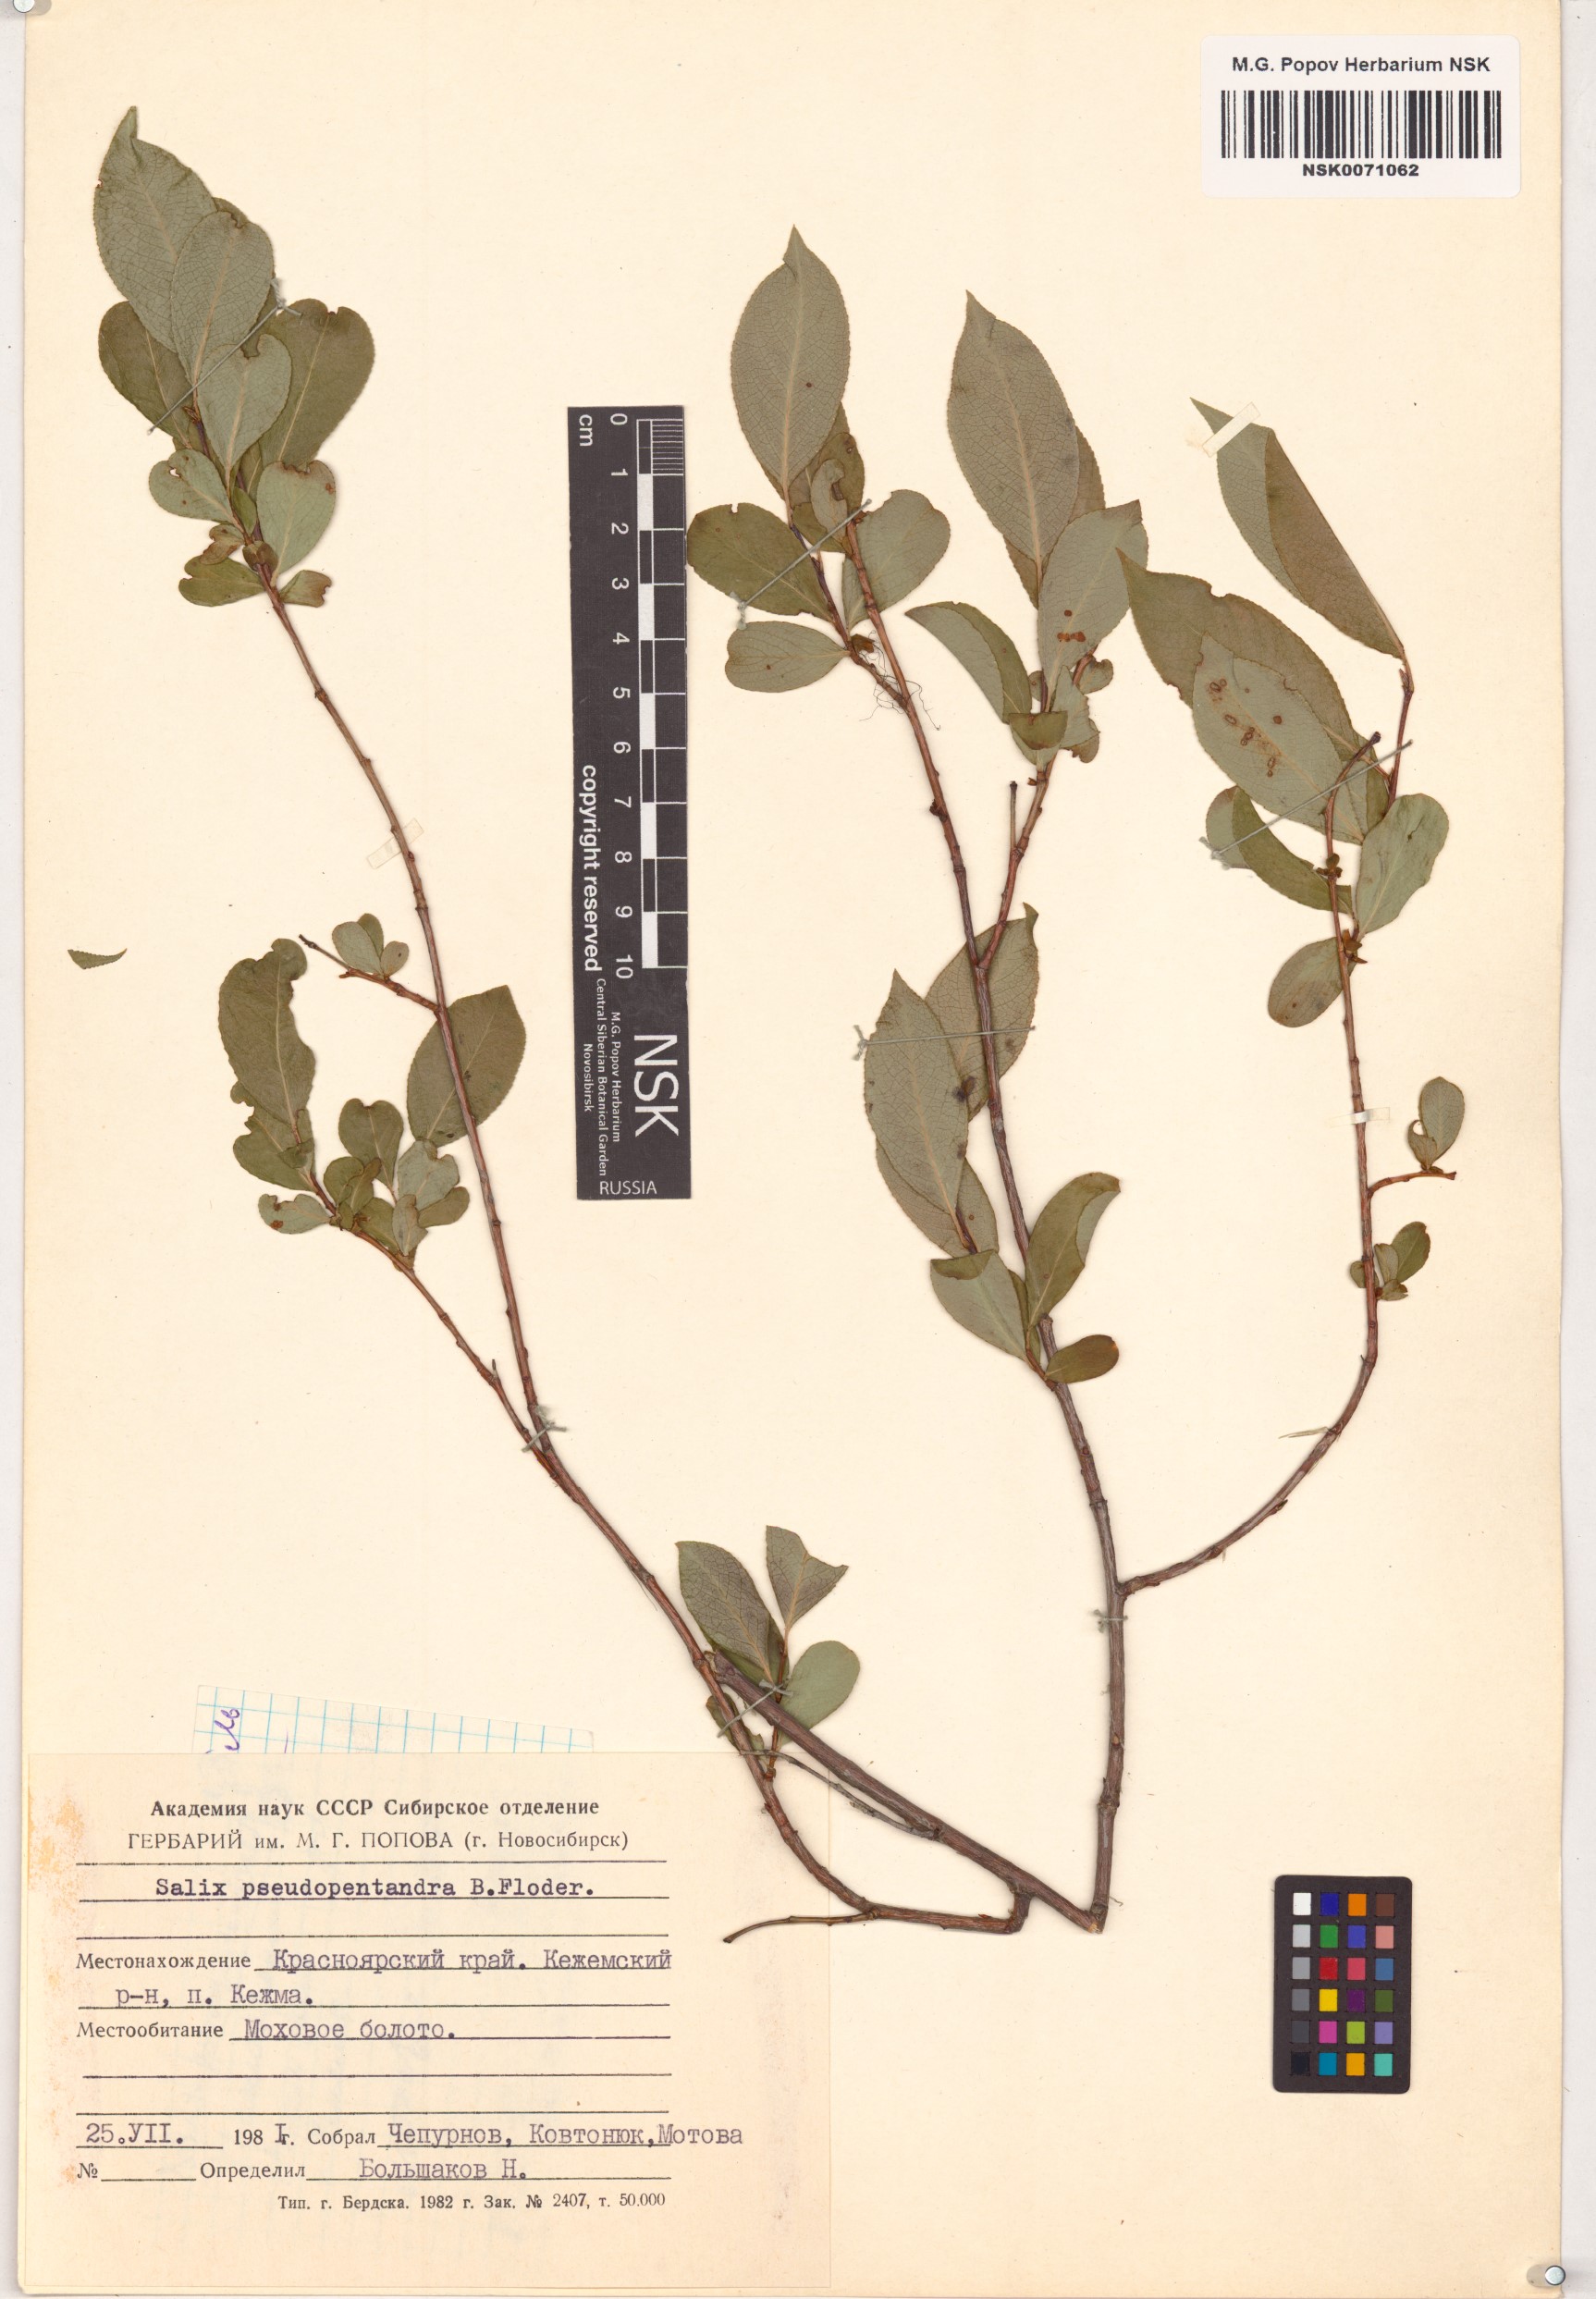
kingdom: Plantae
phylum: Tracheophyta
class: Magnoliopsida
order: Malpighiales
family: Salicaceae
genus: Salix
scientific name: Salix pseudopentandra
